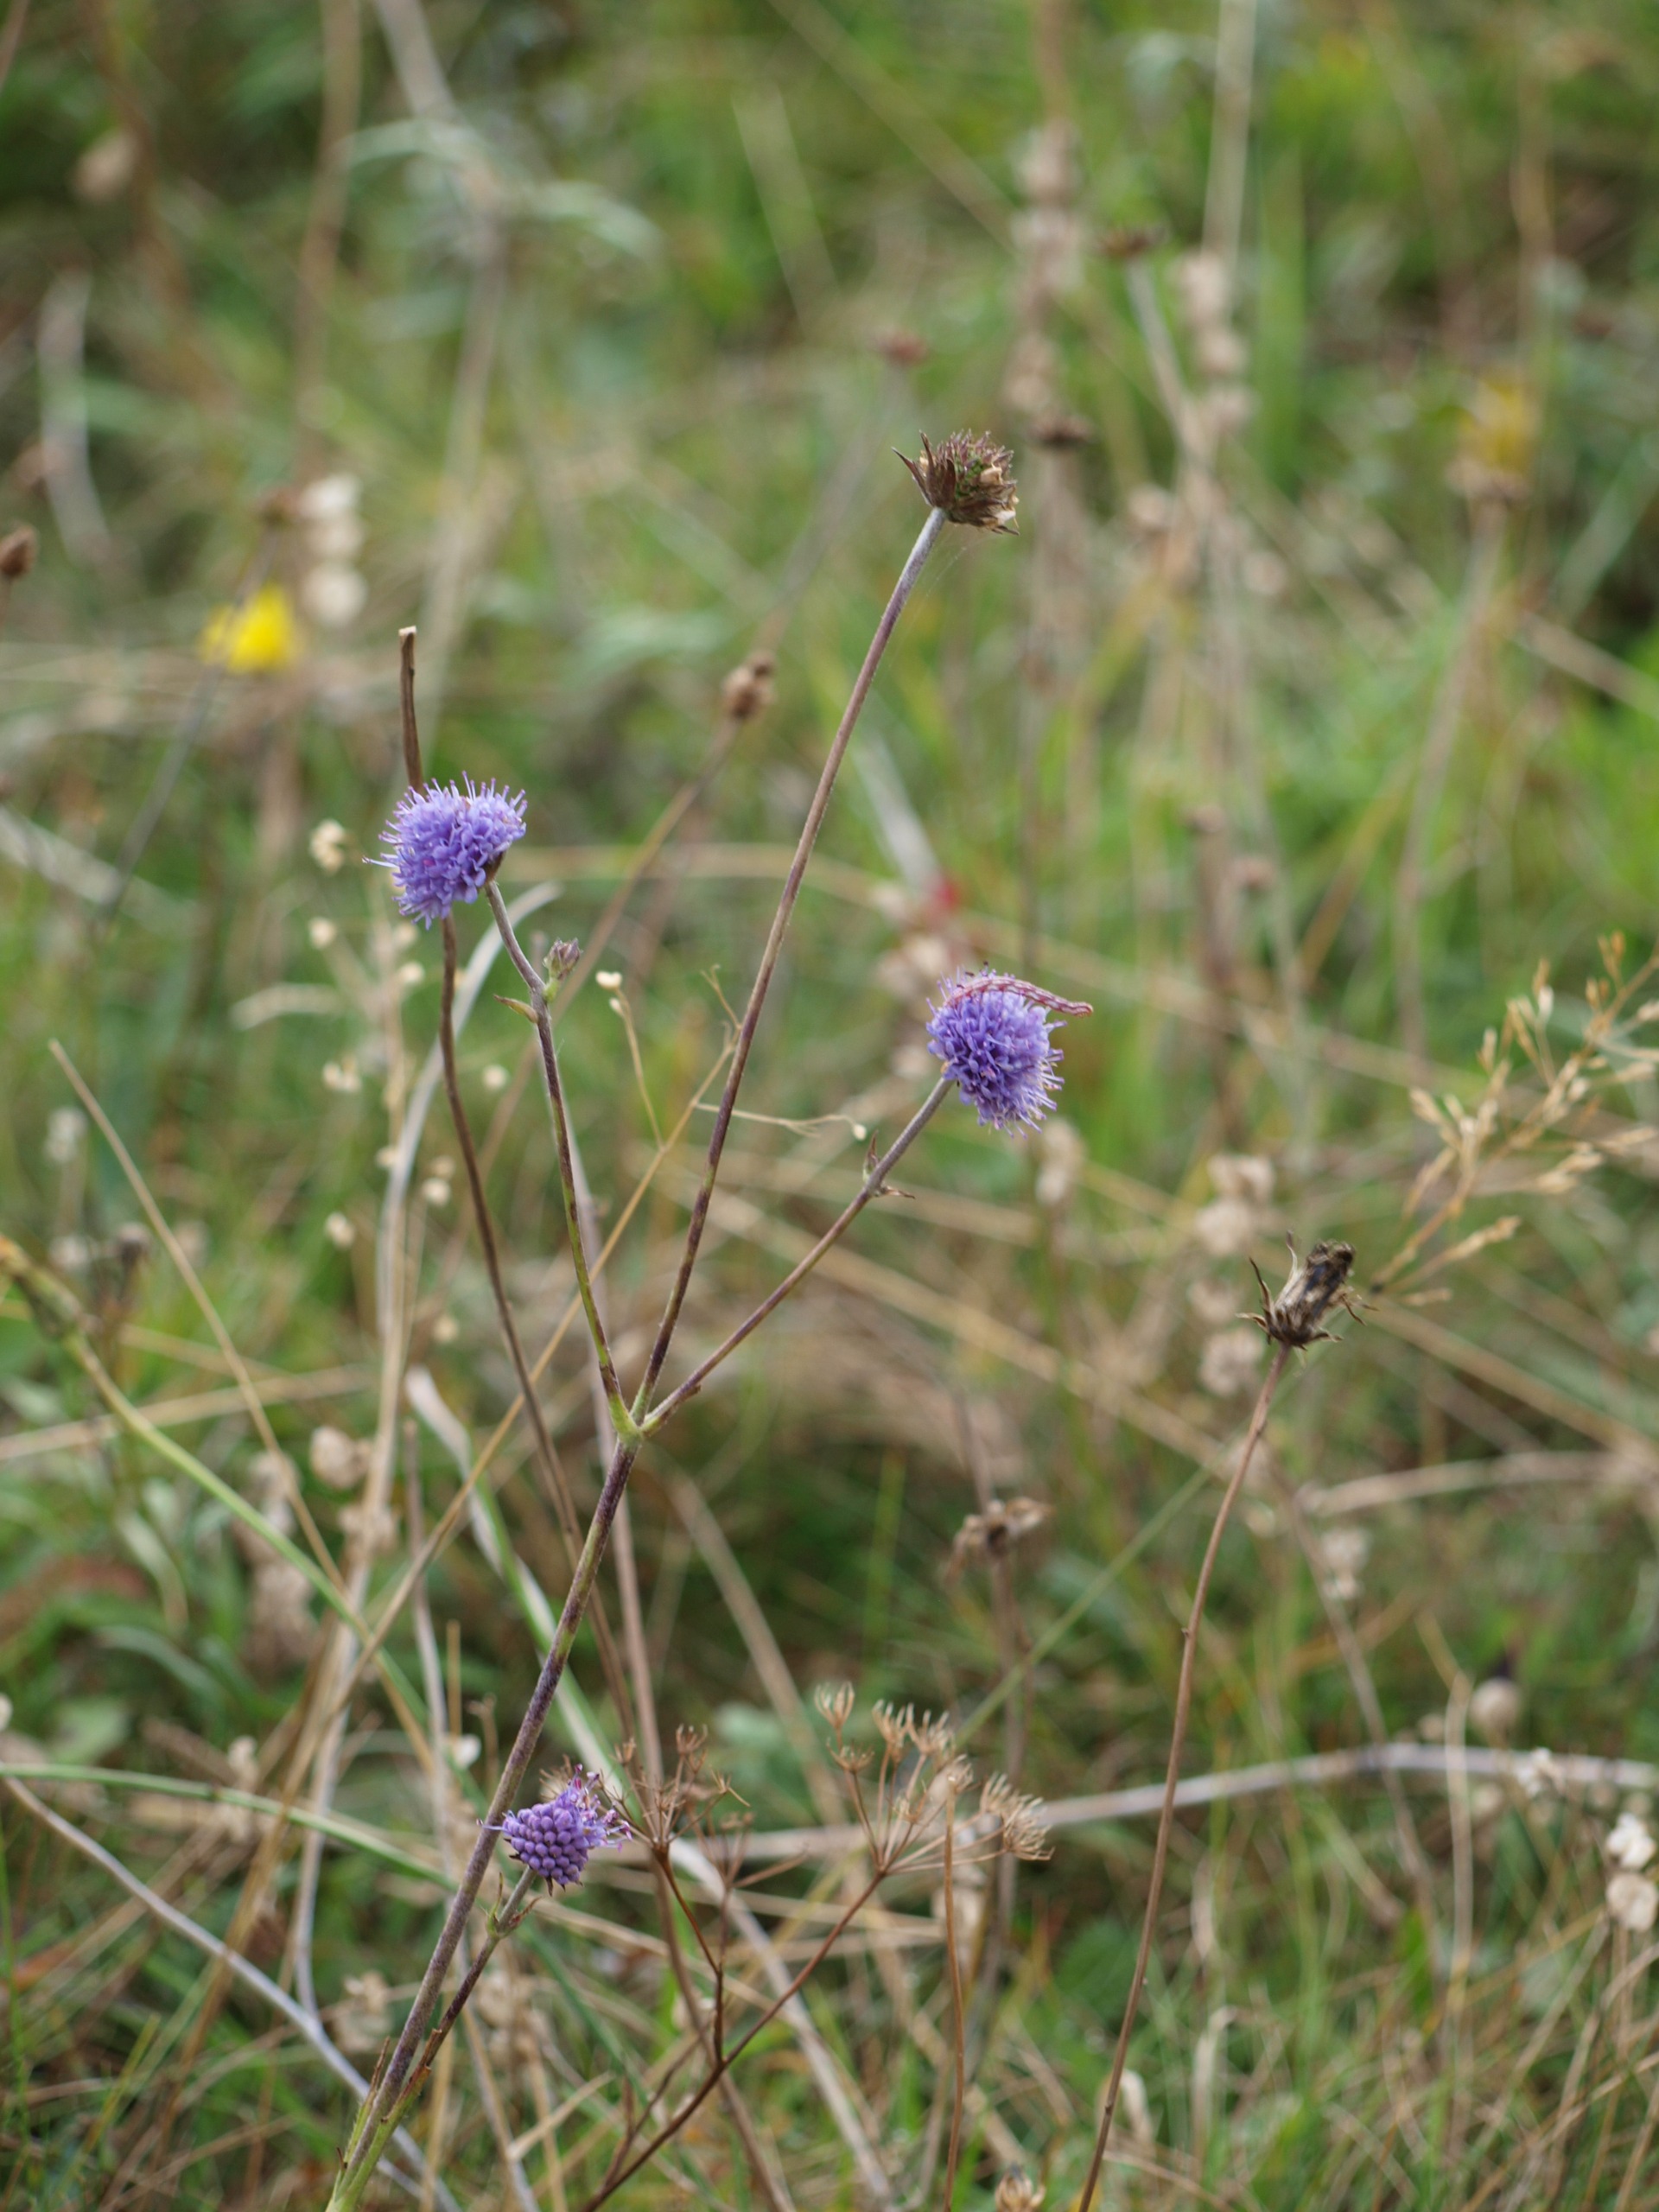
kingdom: Plantae
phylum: Tracheophyta
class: Magnoliopsida
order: Dipsacales
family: Caprifoliaceae
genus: Succisa
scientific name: Succisa pratensis
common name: Djævelsbid
